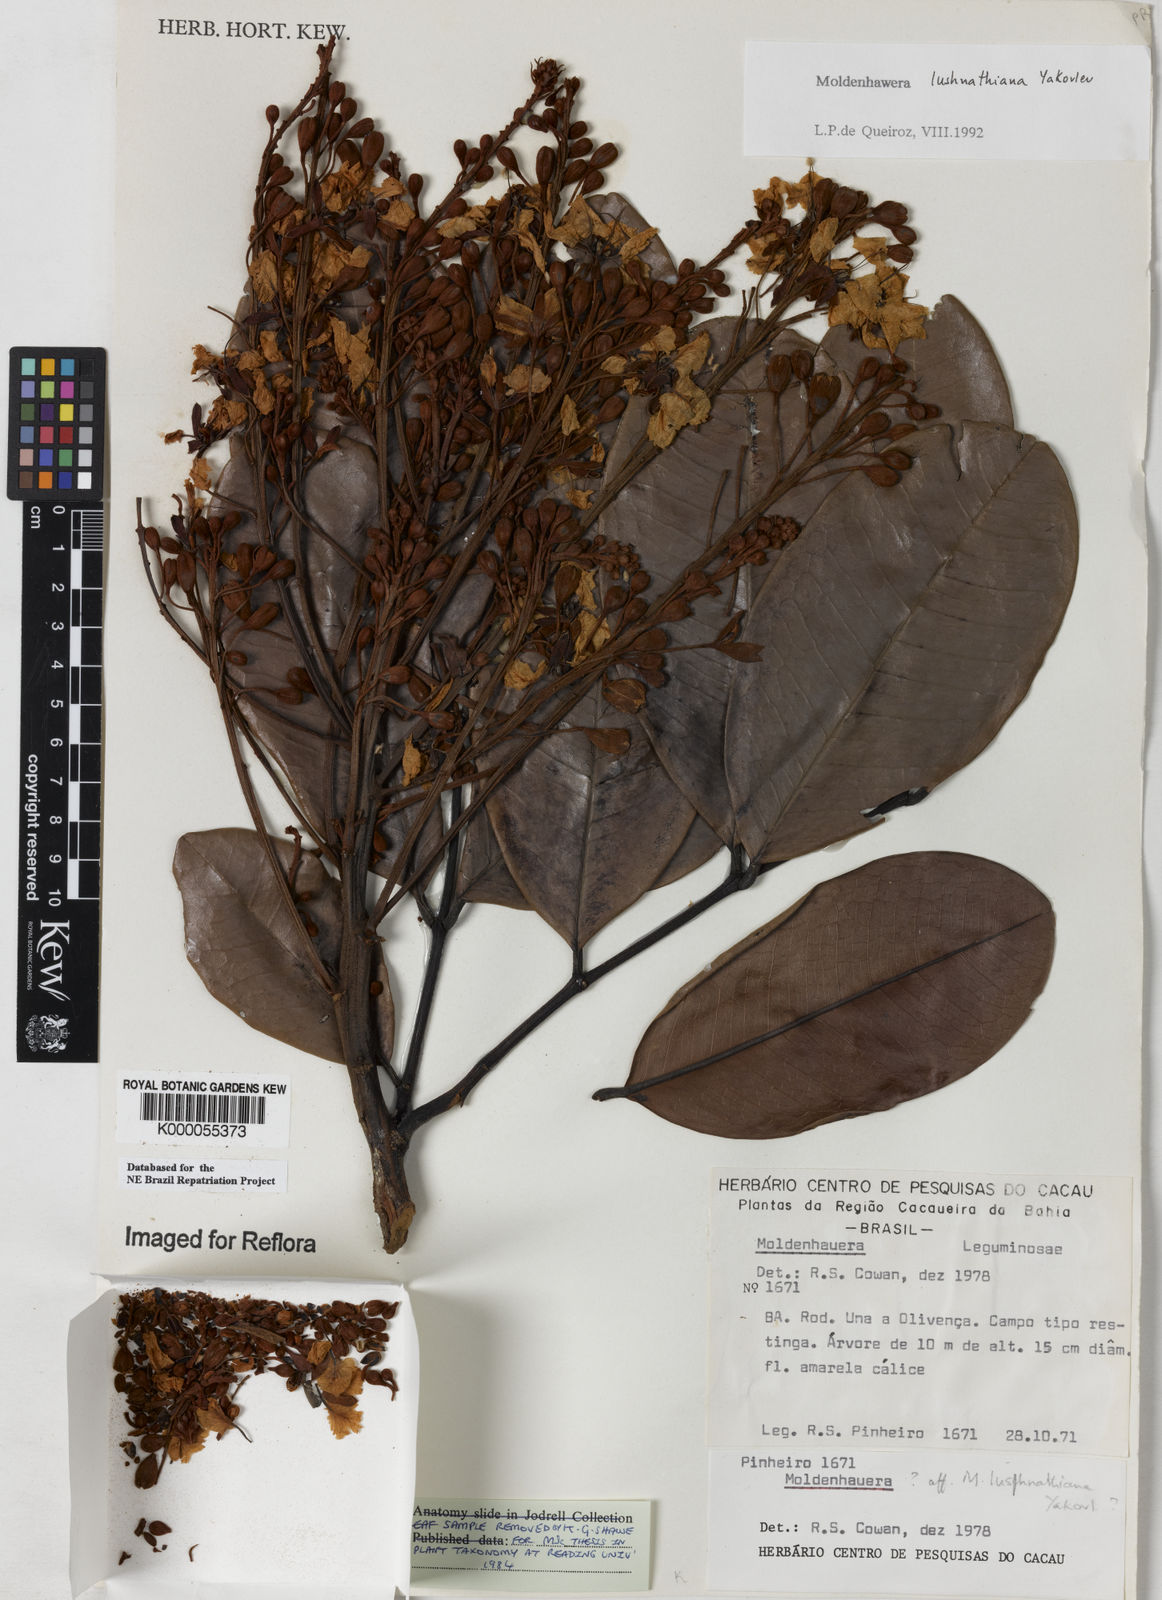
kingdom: Plantae
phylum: Tracheophyta
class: Magnoliopsida
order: Fabales
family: Fabaceae
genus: Moldenhawera
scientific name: Moldenhawera lushnathiana
